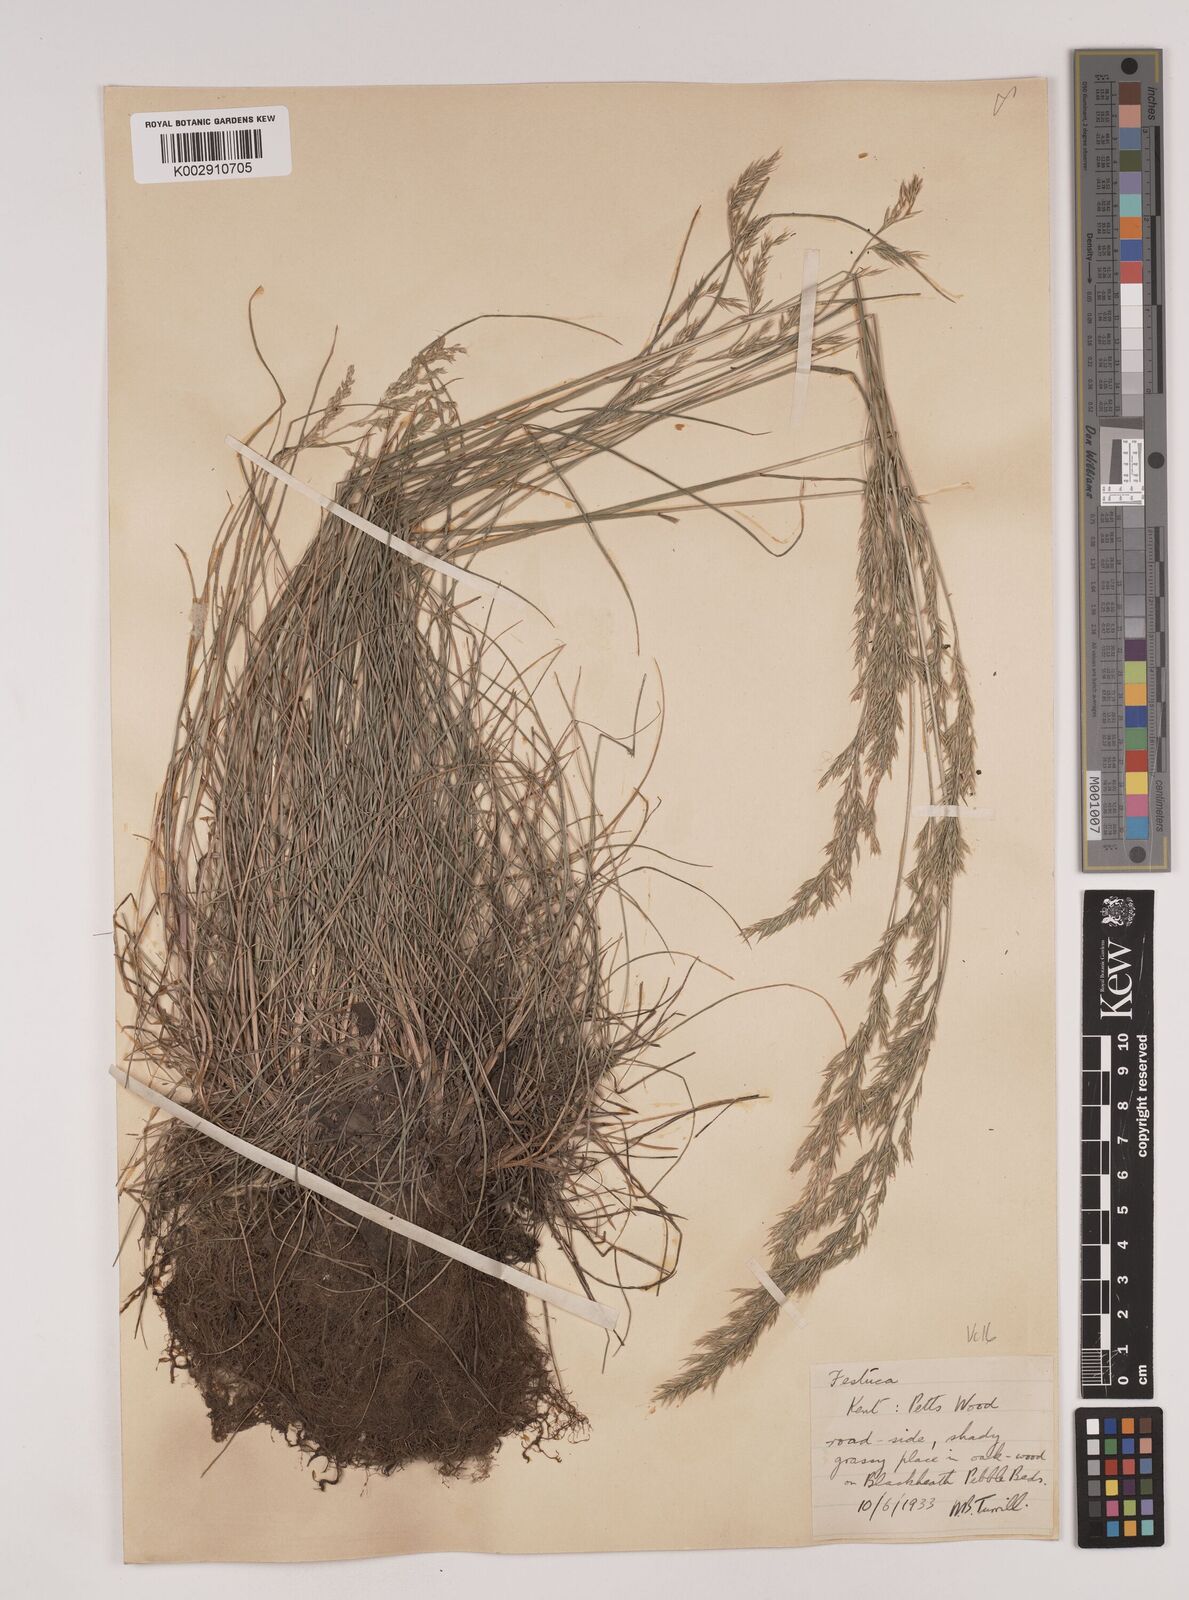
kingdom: Plantae
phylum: Tracheophyta
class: Liliopsida
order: Poales
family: Poaceae
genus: Festuca
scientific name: Festuca rubra
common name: Red fescue
